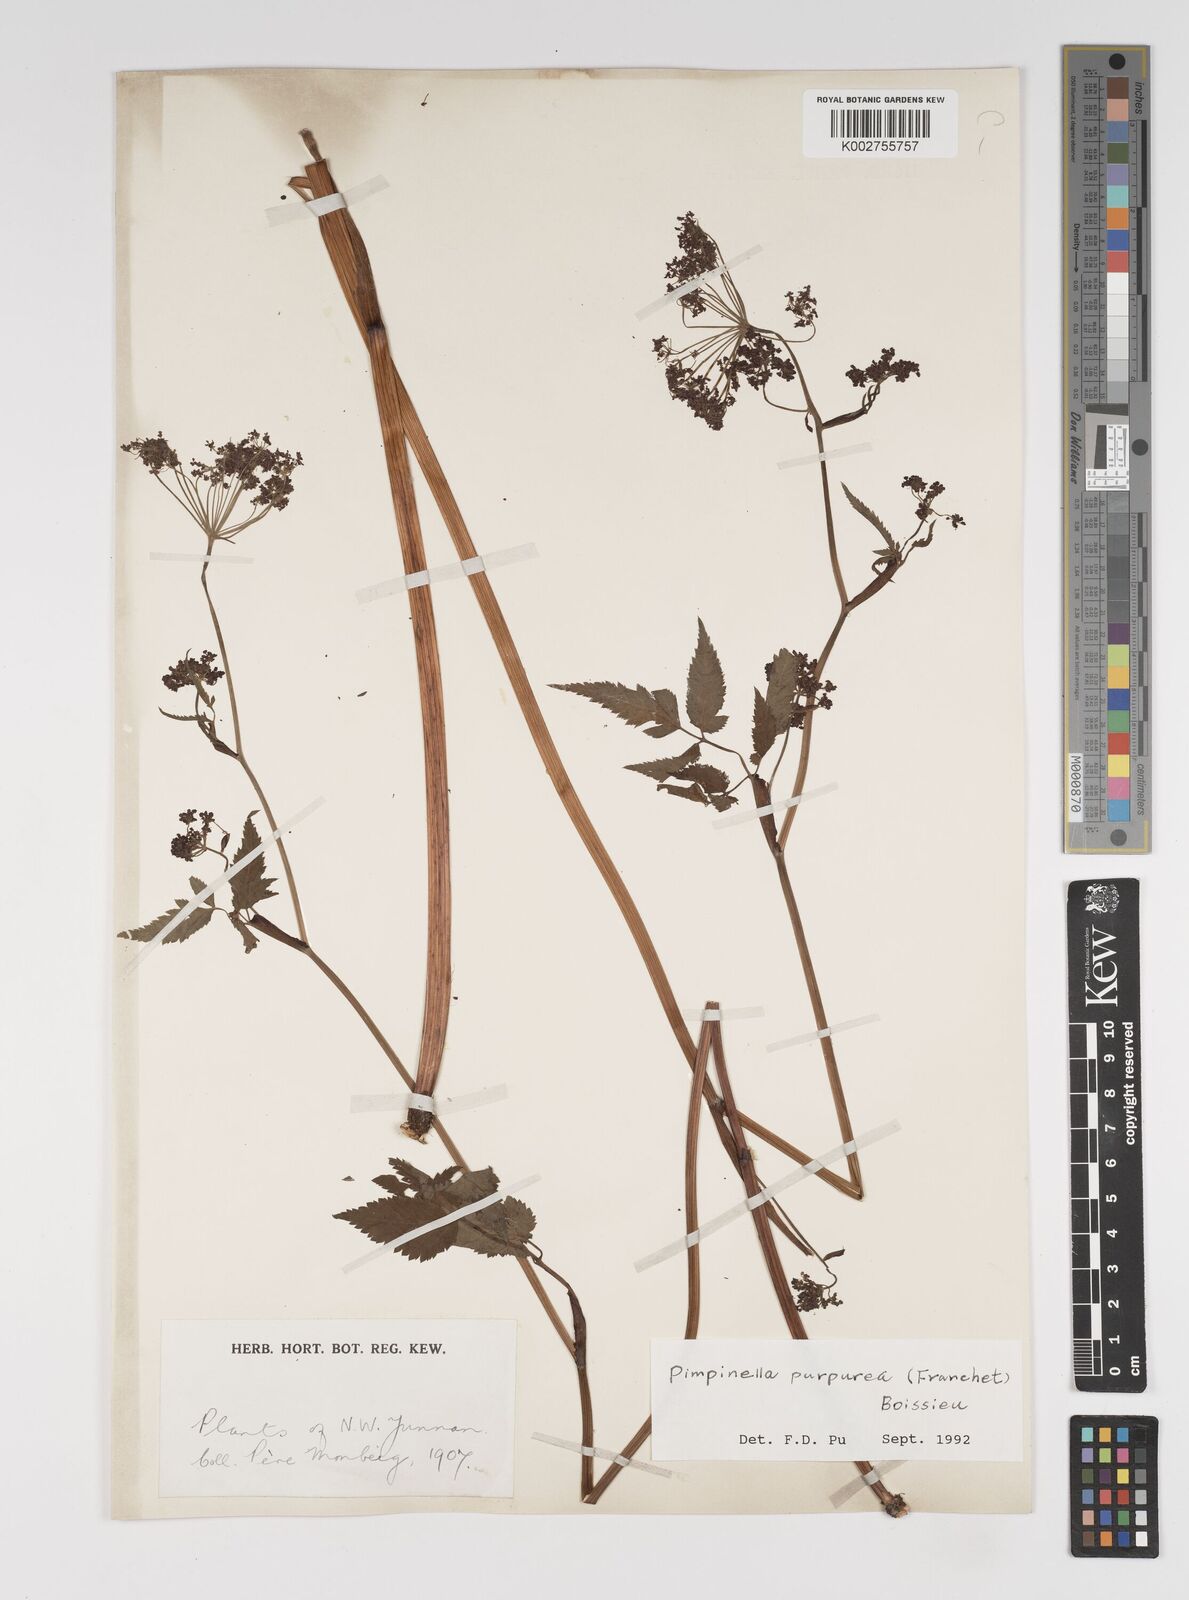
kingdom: Plantae
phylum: Tracheophyta
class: Magnoliopsida
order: Apiales
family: Apiaceae
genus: Pimpinella
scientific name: Pimpinella purpurea
